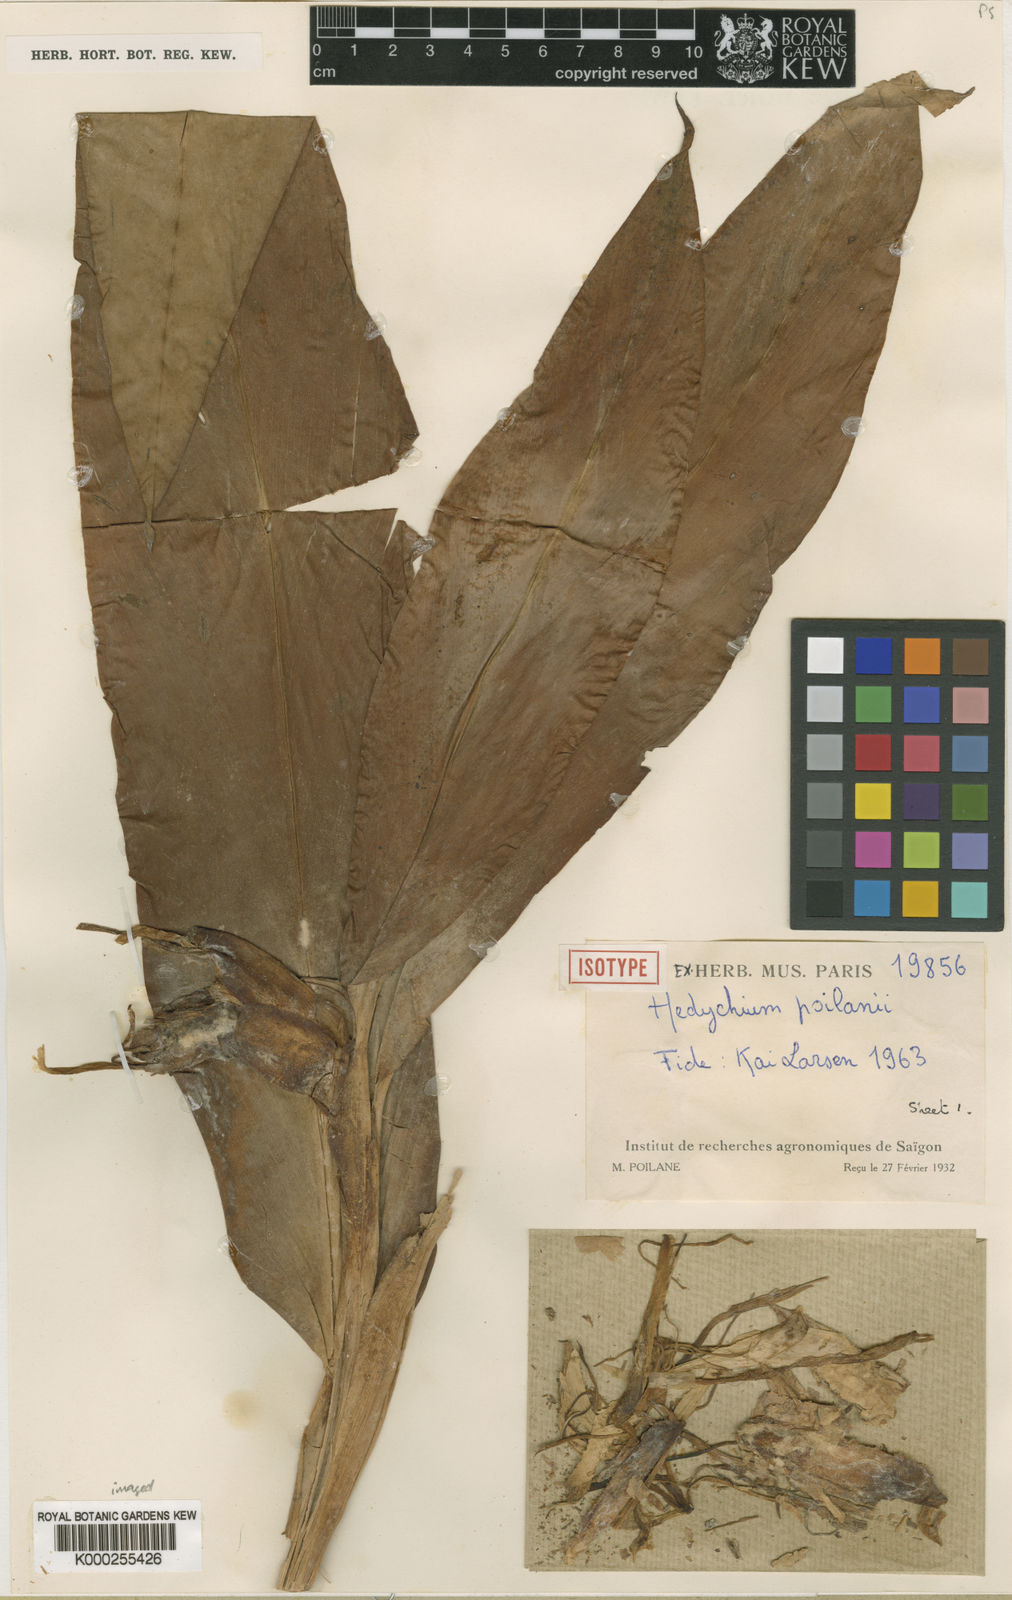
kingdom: Plantae
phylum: Tracheophyta
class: Liliopsida
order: Zingiberales
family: Zingiberaceae
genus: Hedychium
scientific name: Hedychium poilanei
